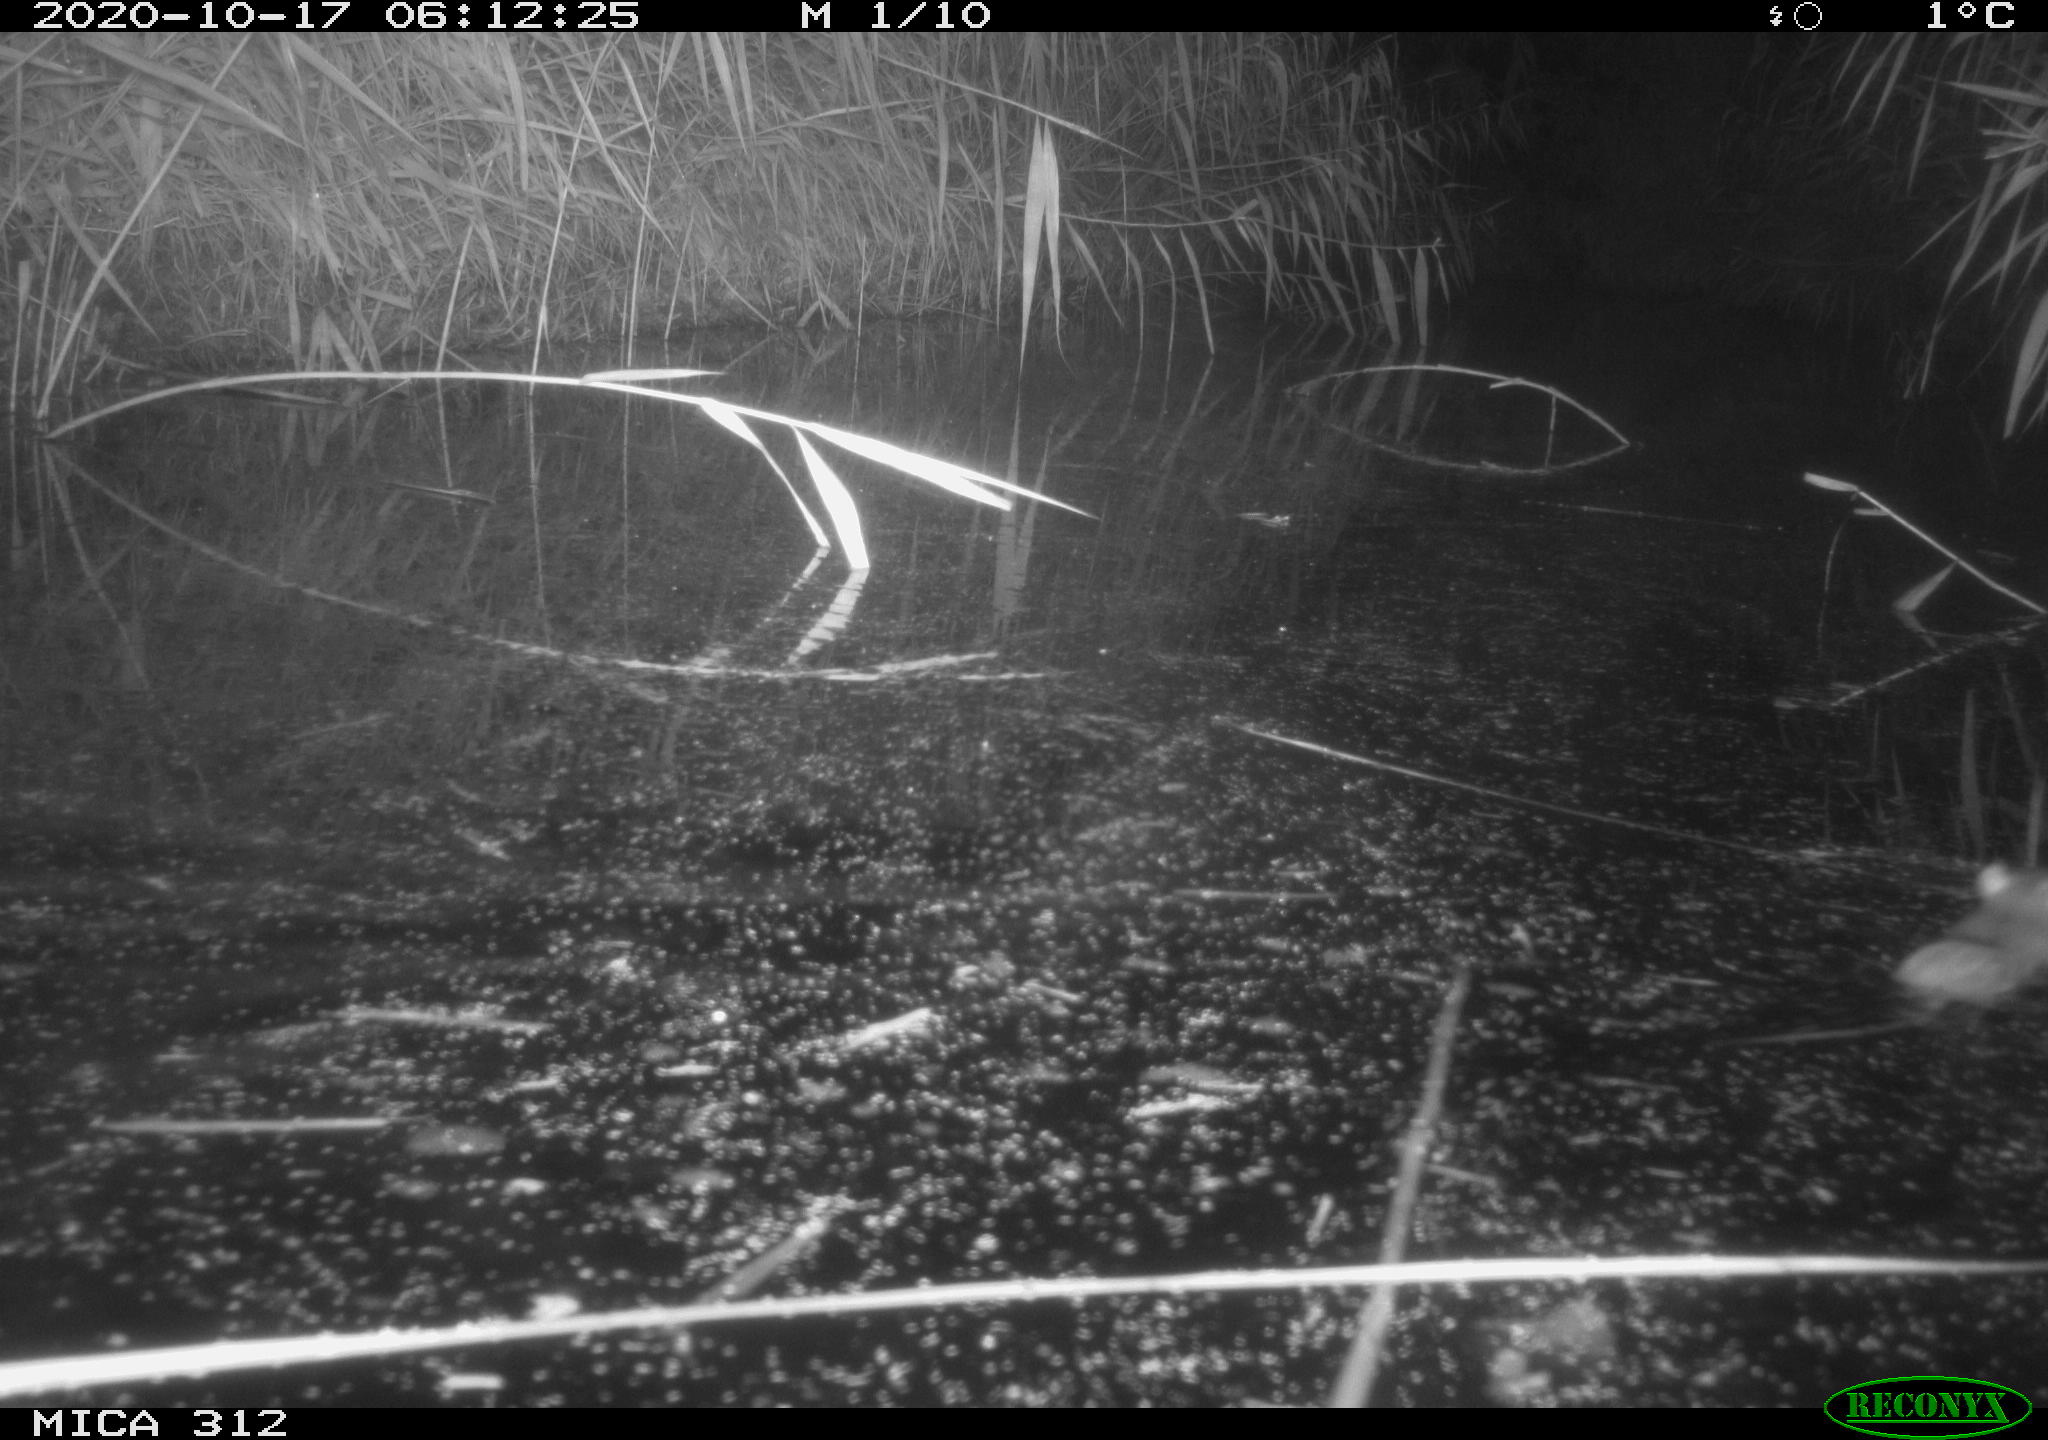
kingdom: Animalia
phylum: Chordata
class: Mammalia
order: Rodentia
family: Muridae
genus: Rattus
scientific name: Rattus norvegicus
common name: Brown rat
